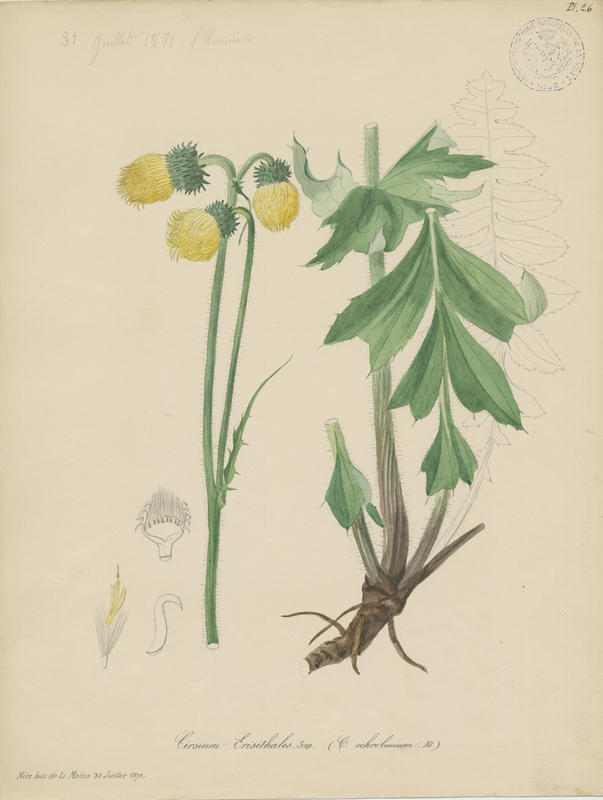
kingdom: Plantae
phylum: Tracheophyta
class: Magnoliopsida
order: Asterales
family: Asteraceae
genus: Cirsium
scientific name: Cirsium erisithales
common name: Yellow thistle
